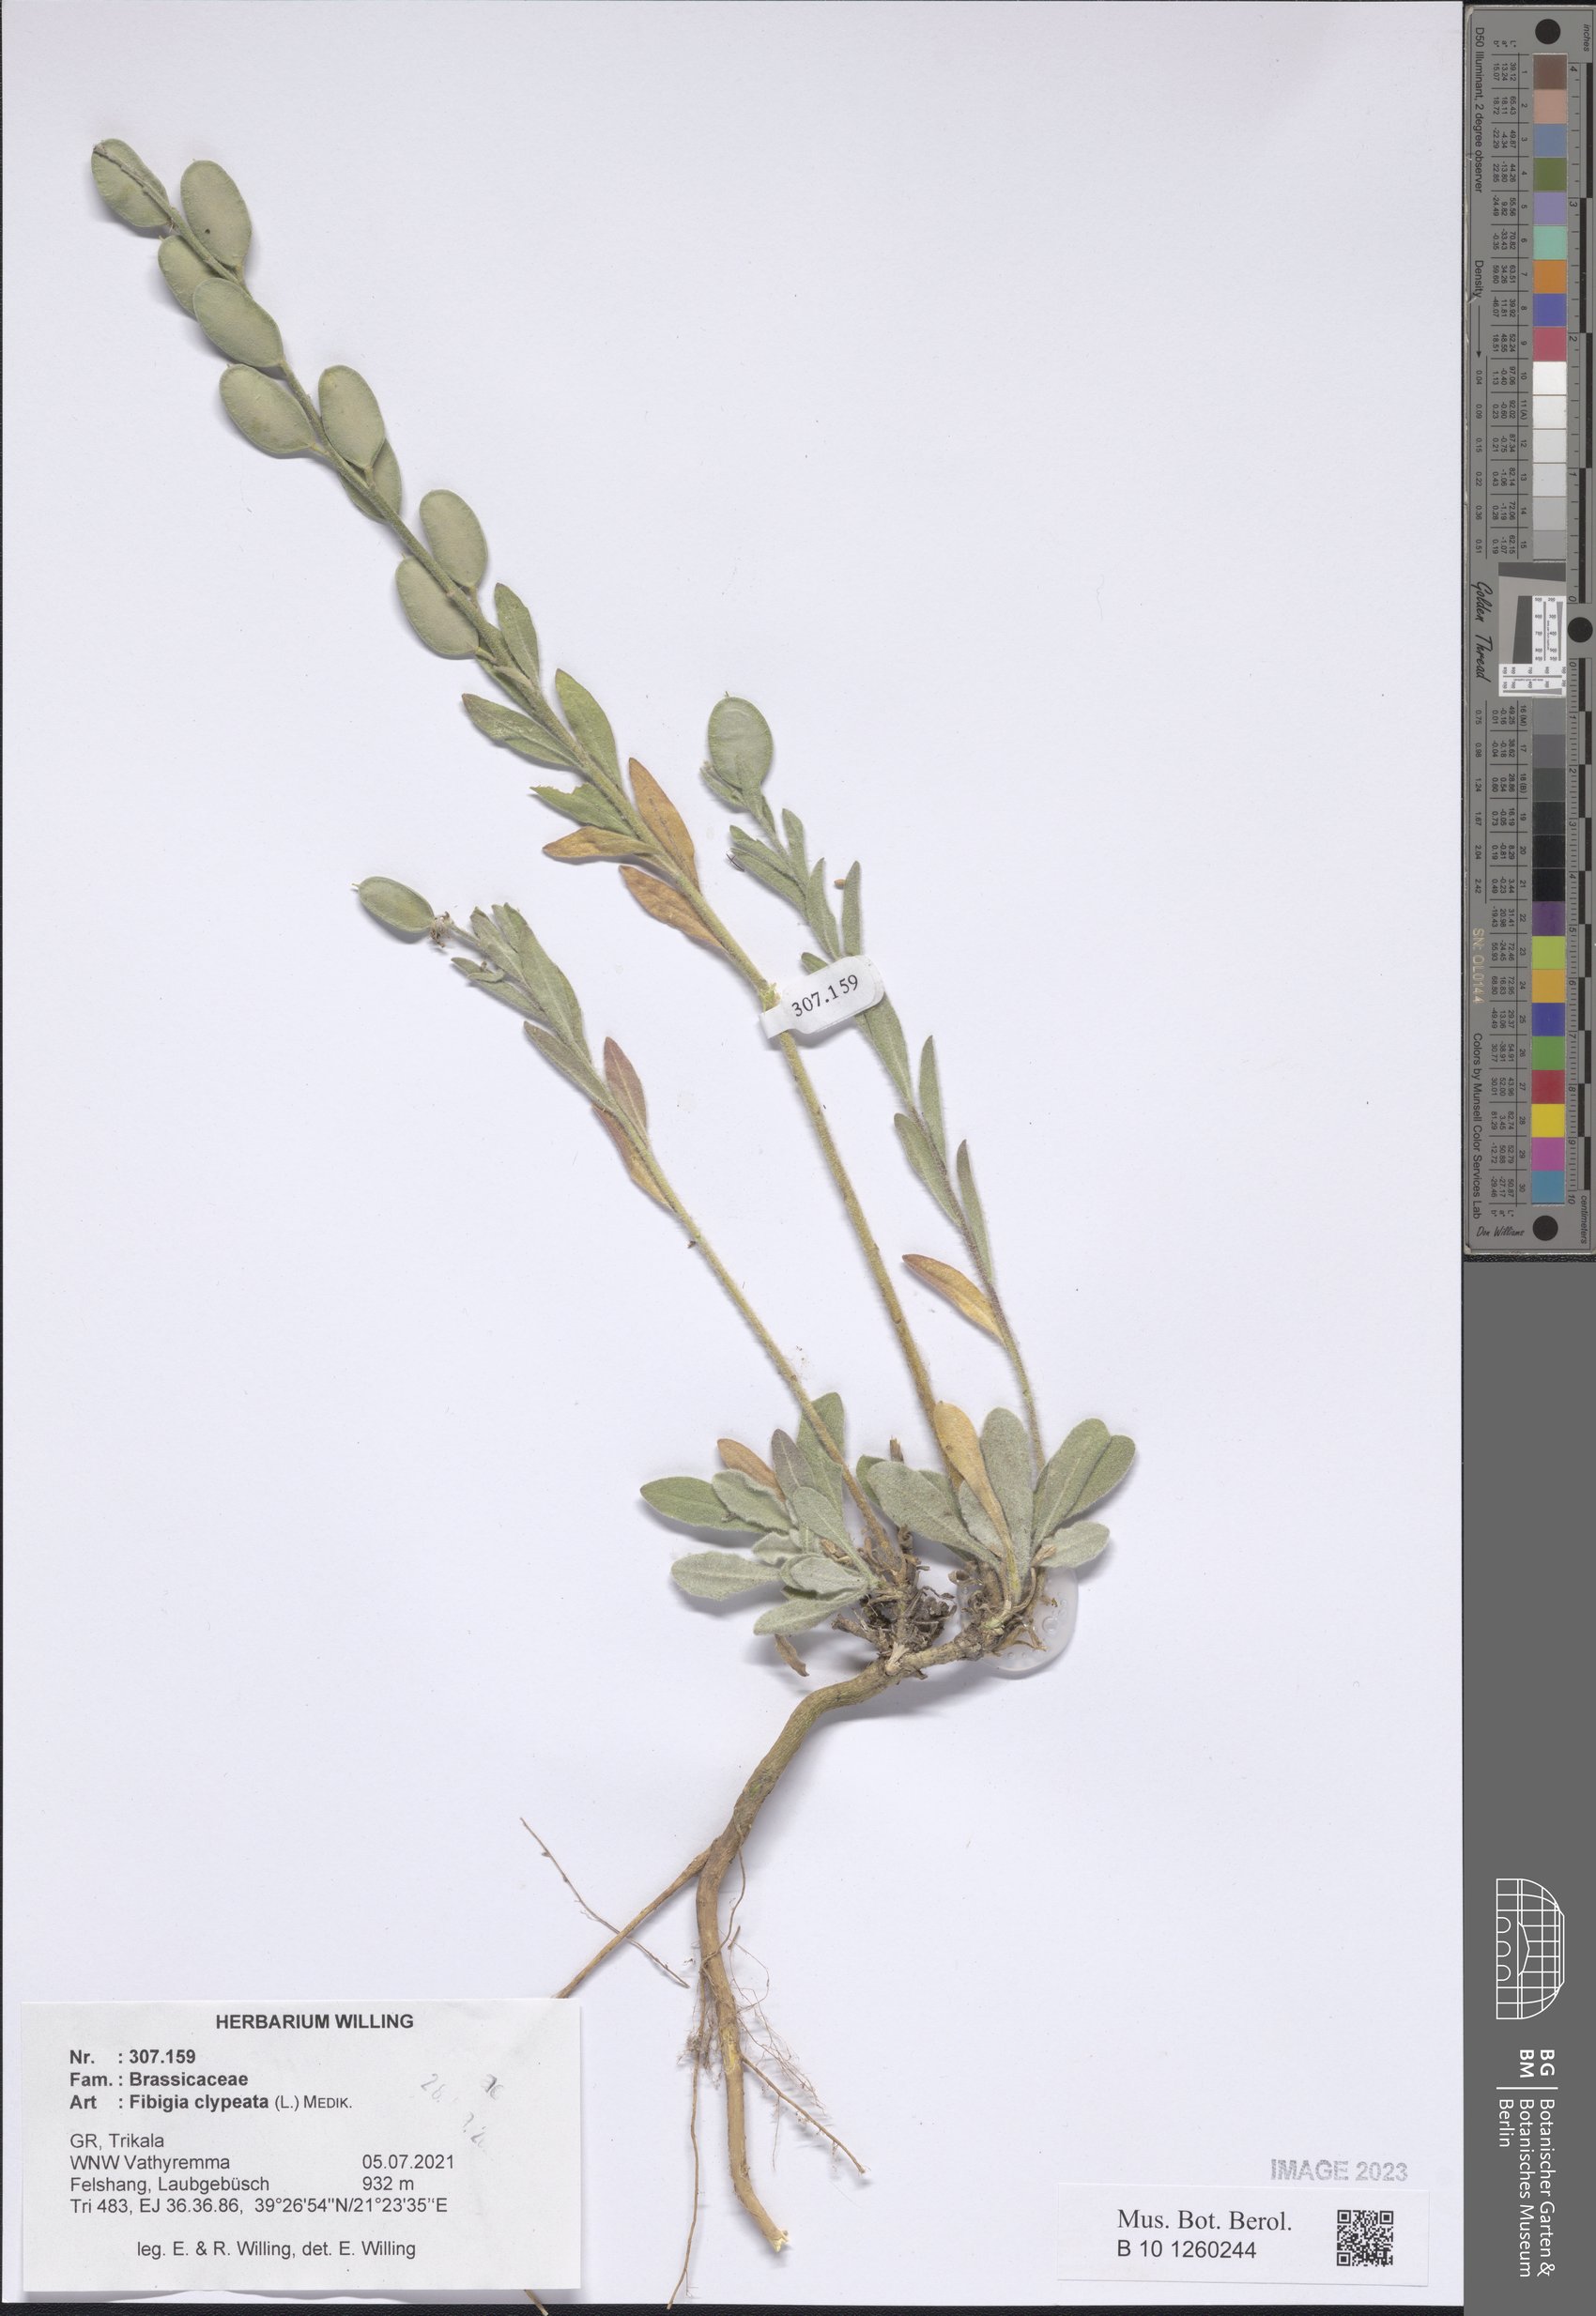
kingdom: Plantae
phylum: Tracheophyta
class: Magnoliopsida
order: Brassicales
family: Brassicaceae
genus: Fibigia
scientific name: Fibigia clypeata
